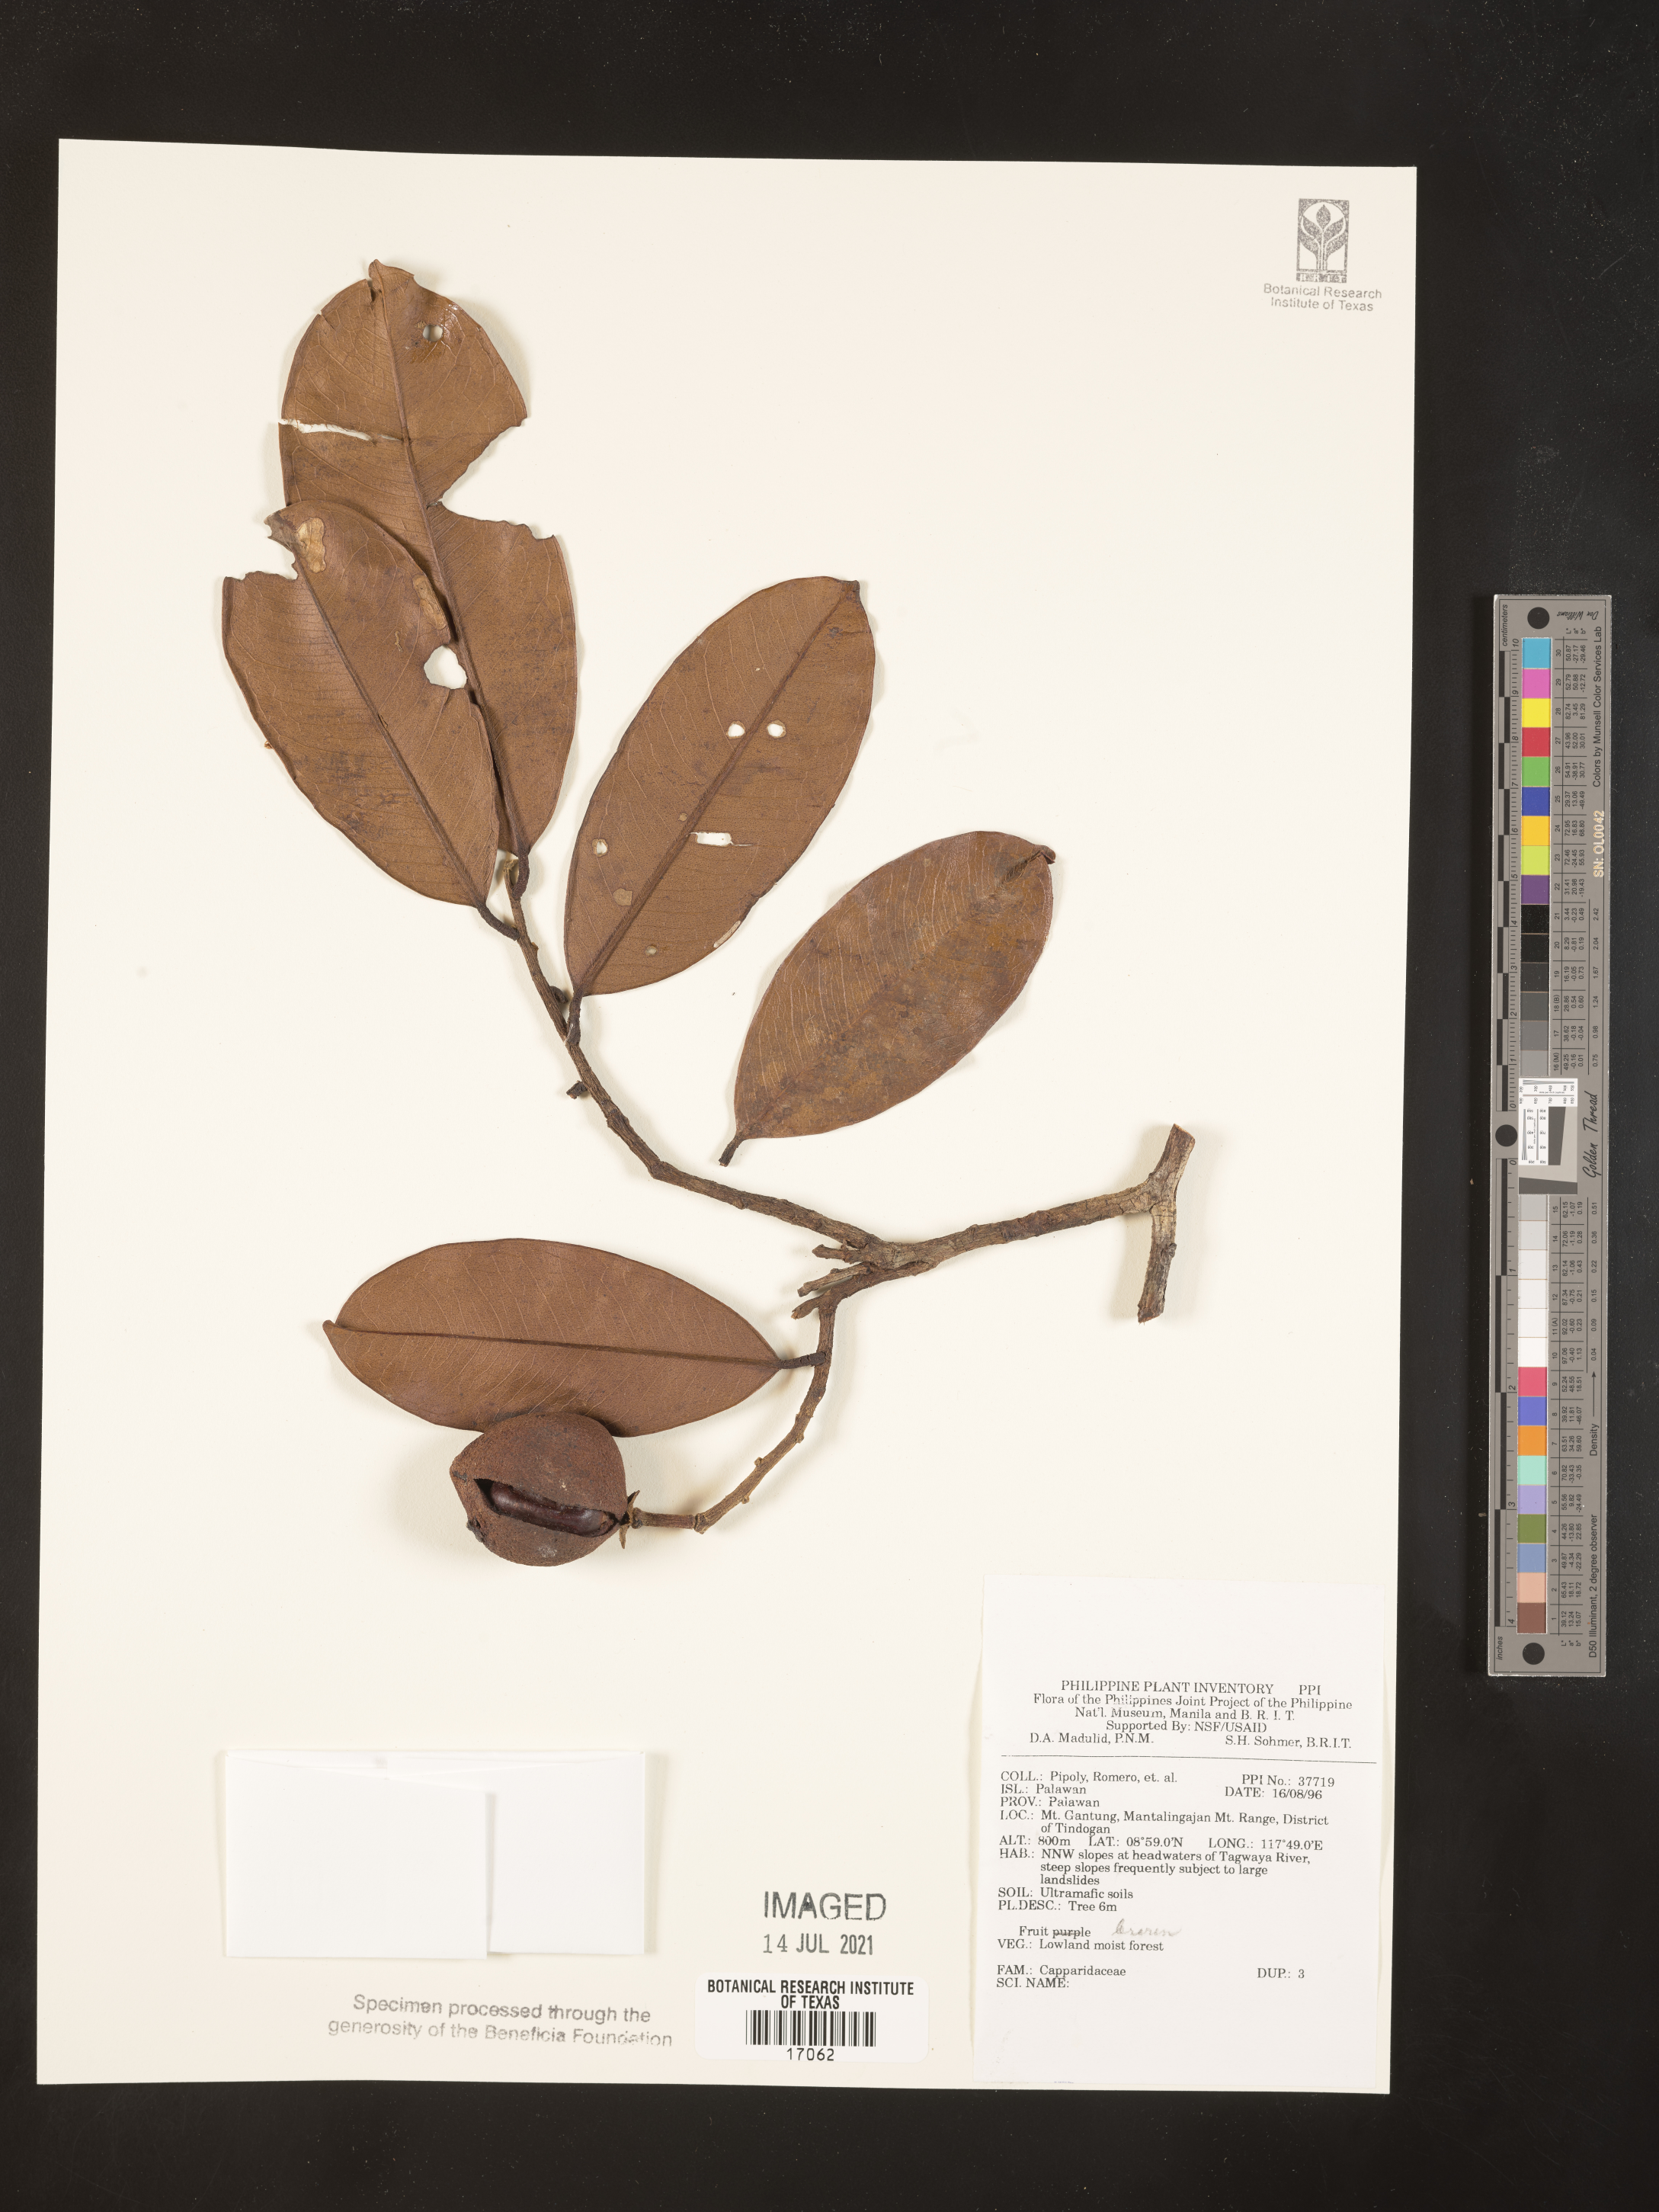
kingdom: Plantae
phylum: Tracheophyta
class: Magnoliopsida
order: Brassicales
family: Capparaceae
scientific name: Capparaceae
